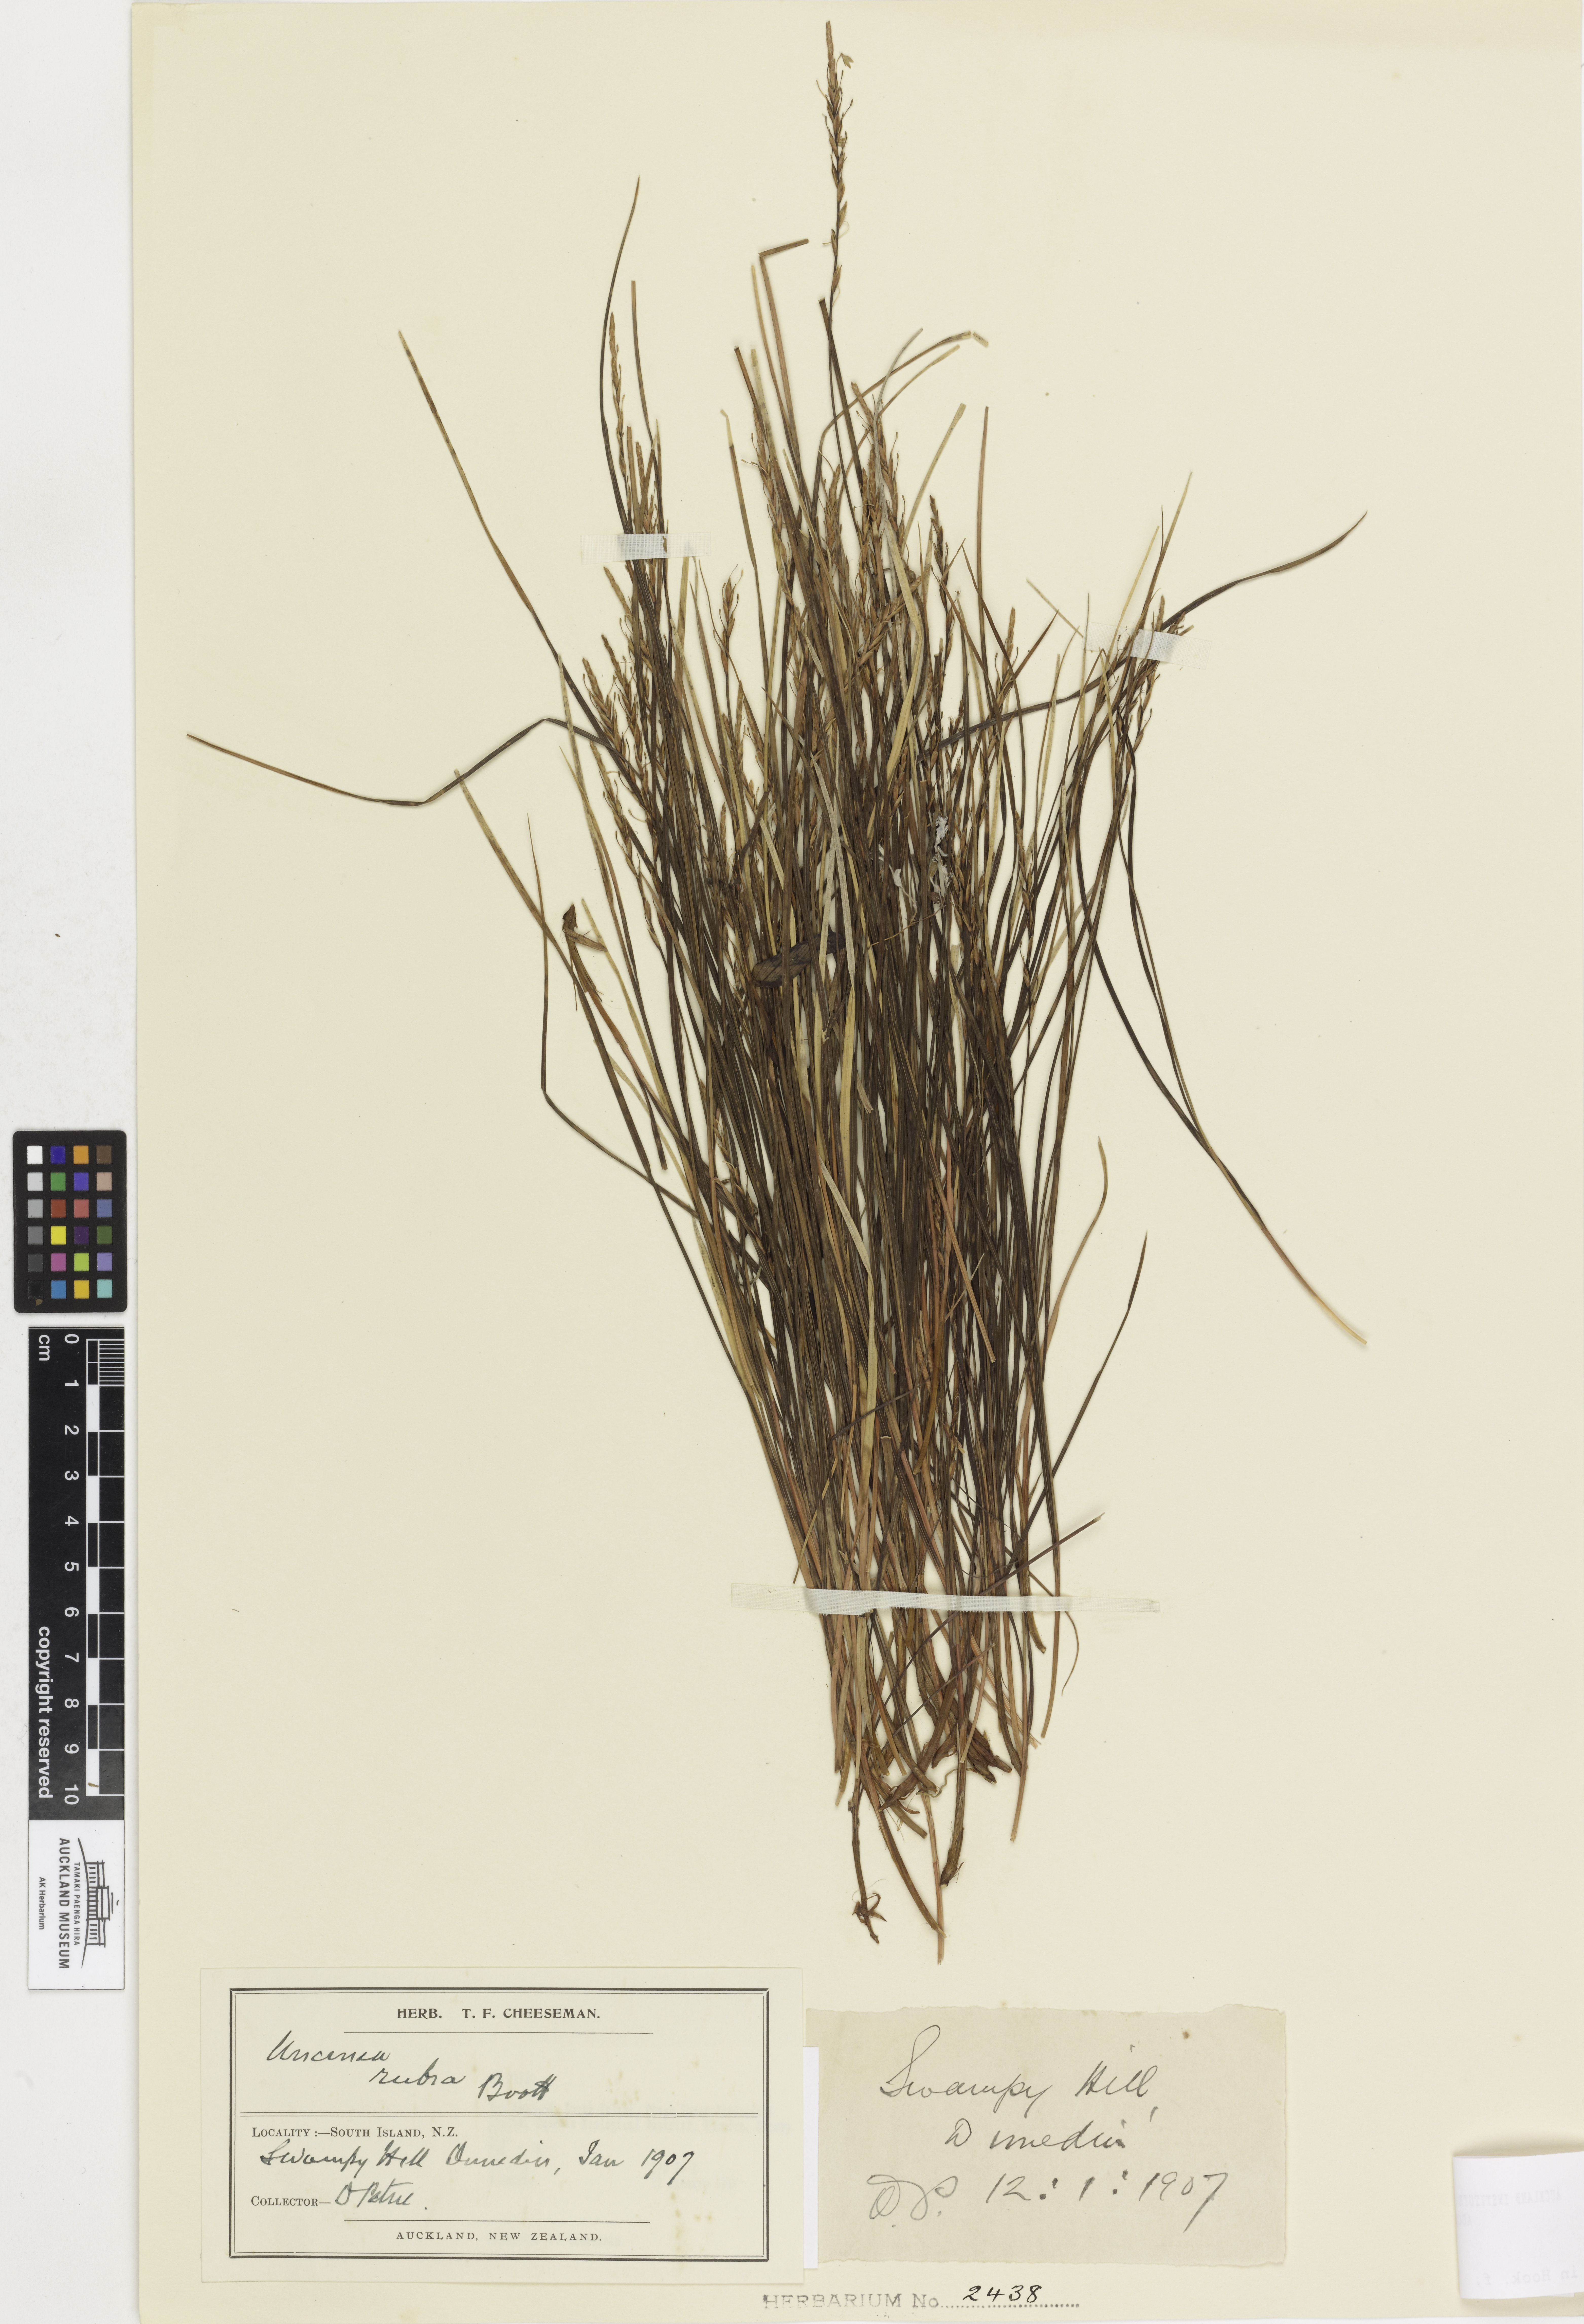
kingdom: Plantae
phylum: Tracheophyta
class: Liliopsida
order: Poales
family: Cyperaceae
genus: Carex
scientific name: Carex punicea
